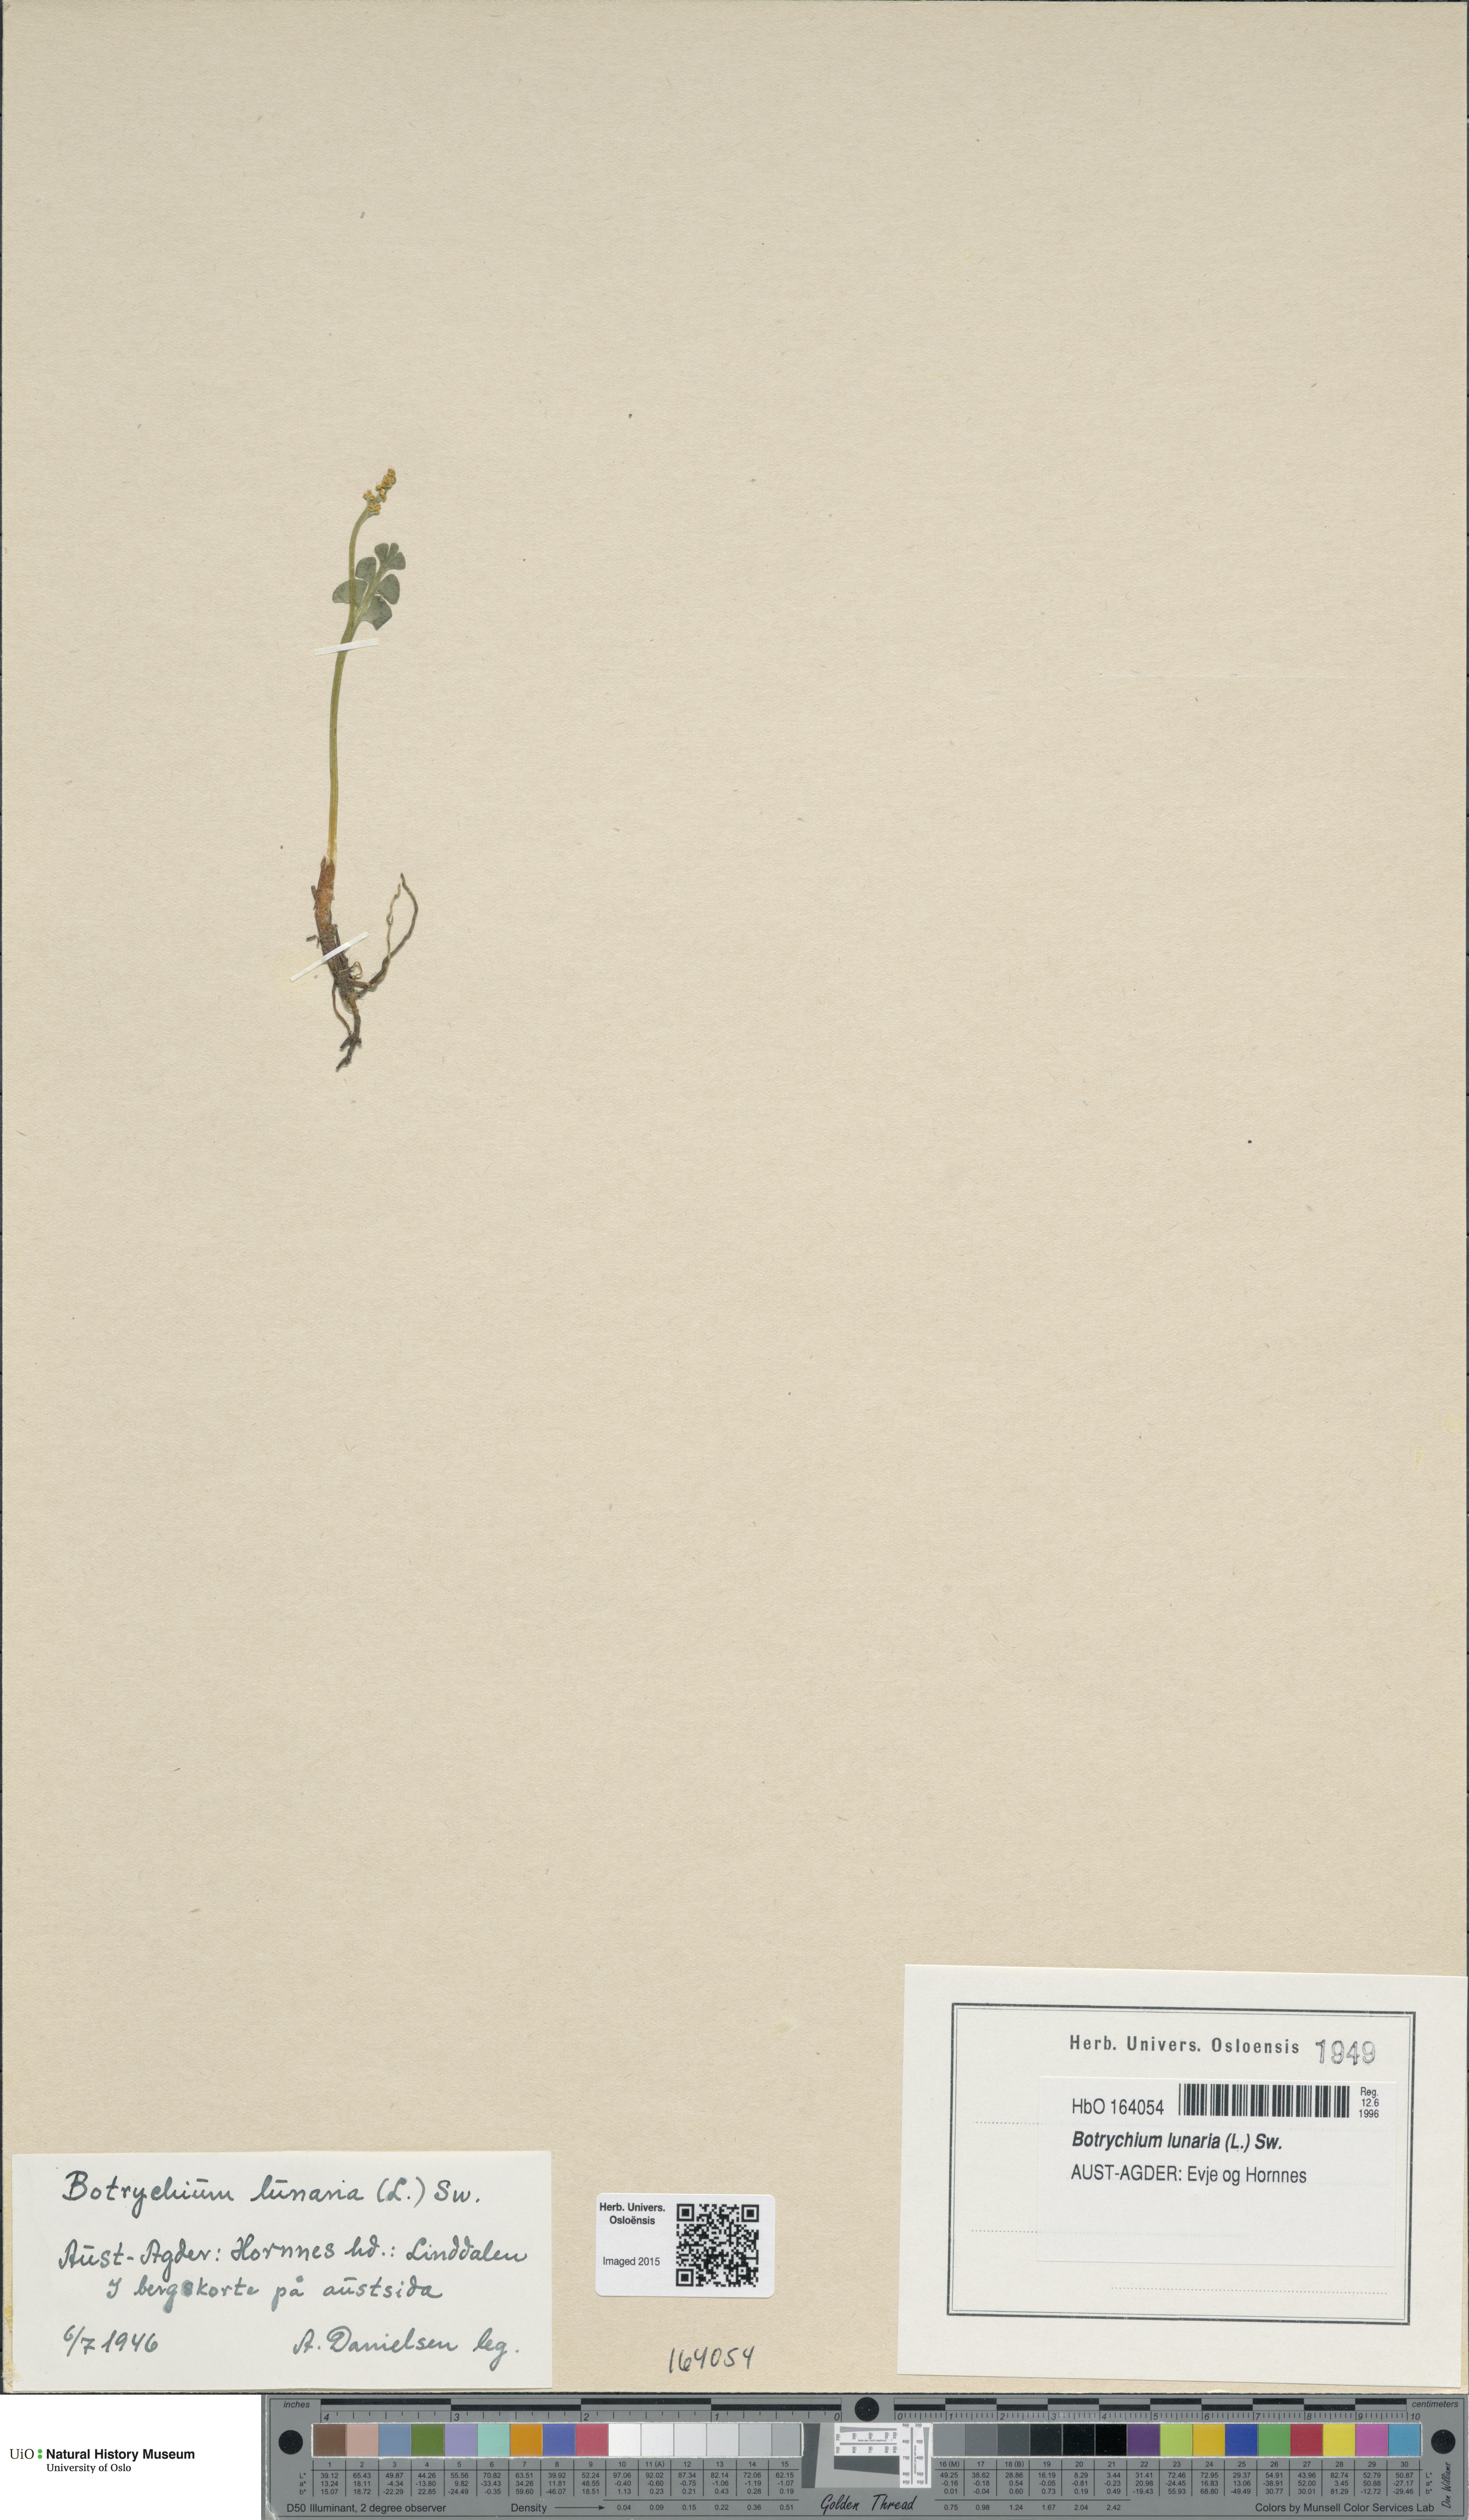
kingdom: Plantae
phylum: Tracheophyta
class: Polypodiopsida
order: Ophioglossales
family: Ophioglossaceae
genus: Botrychium
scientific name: Botrychium lunaria
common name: Moonwort
